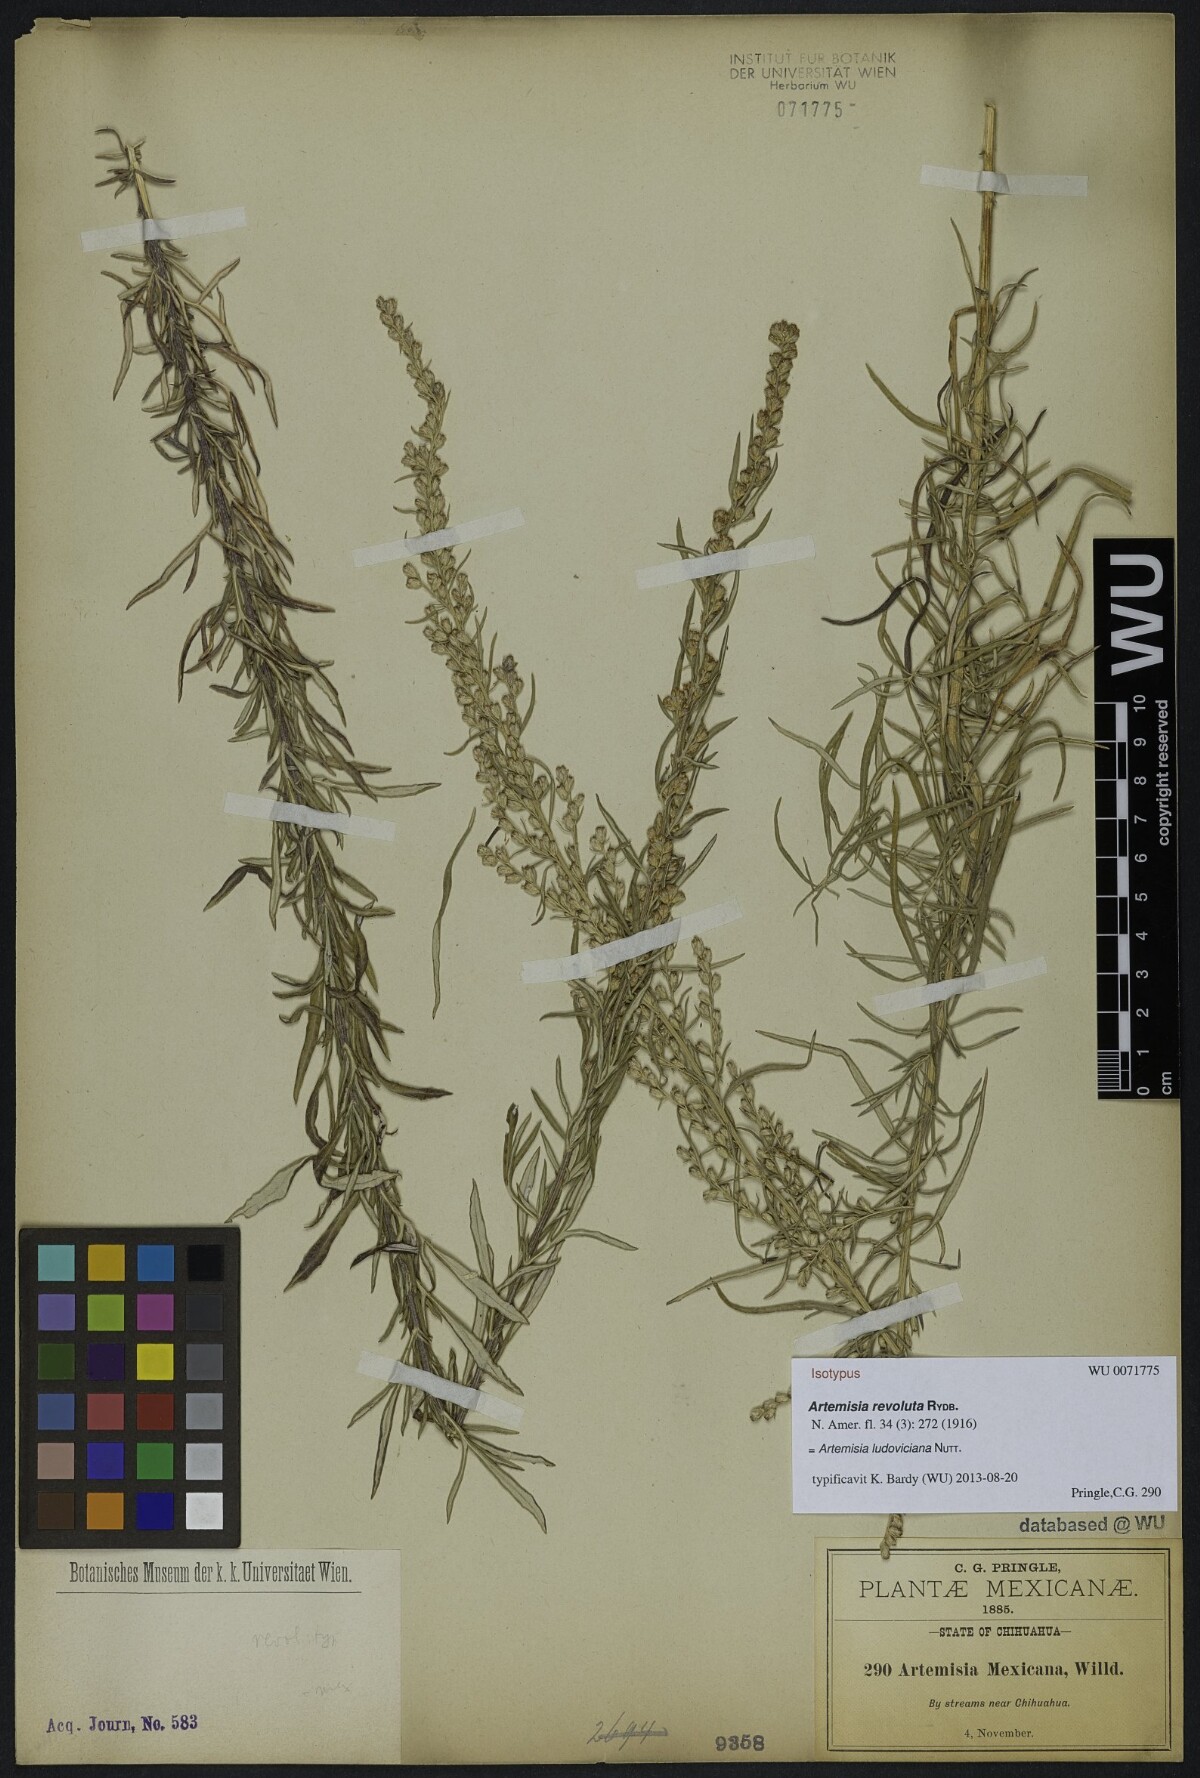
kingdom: Plantae
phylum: Tracheophyta
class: Magnoliopsida
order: Asterales
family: Asteraceae
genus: Artemisia
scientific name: Artemisia ludoviciana
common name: Western mugwort
